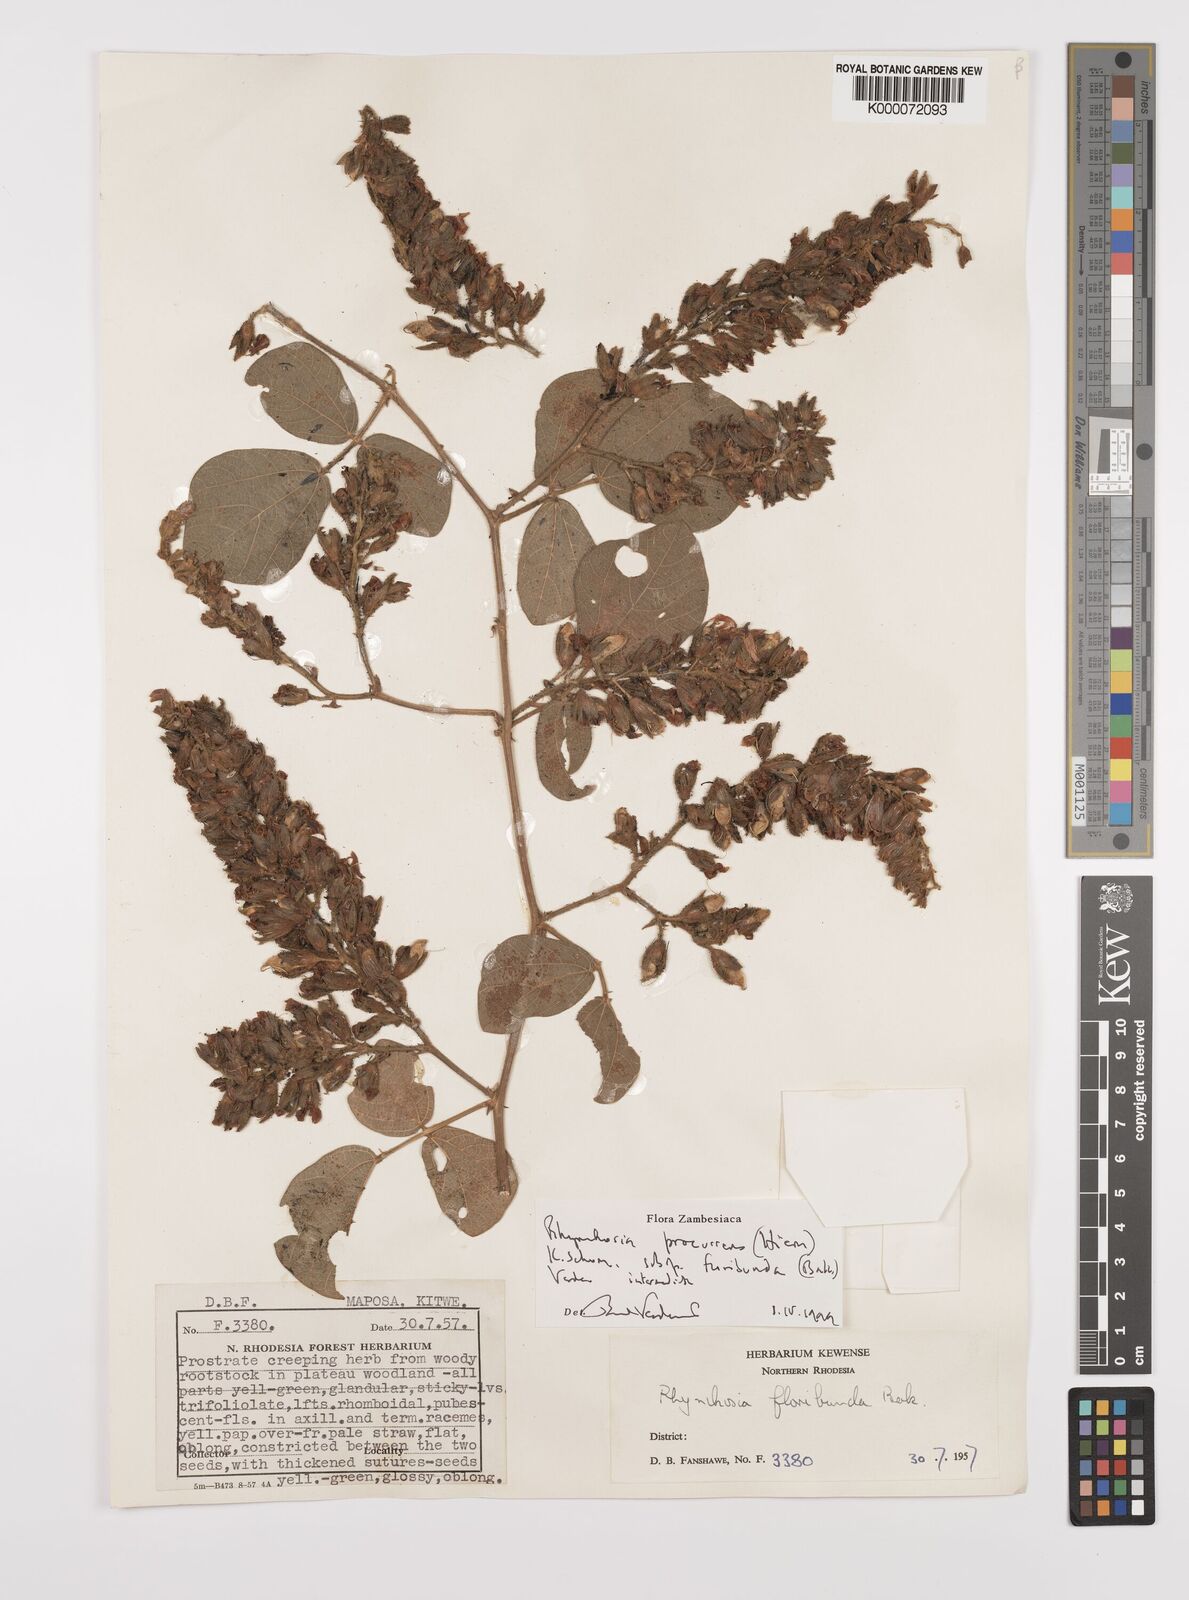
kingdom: Plantae
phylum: Tracheophyta
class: Magnoliopsida
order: Fabales
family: Fabaceae
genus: Rhynchosia
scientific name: Rhynchosia procurrens
